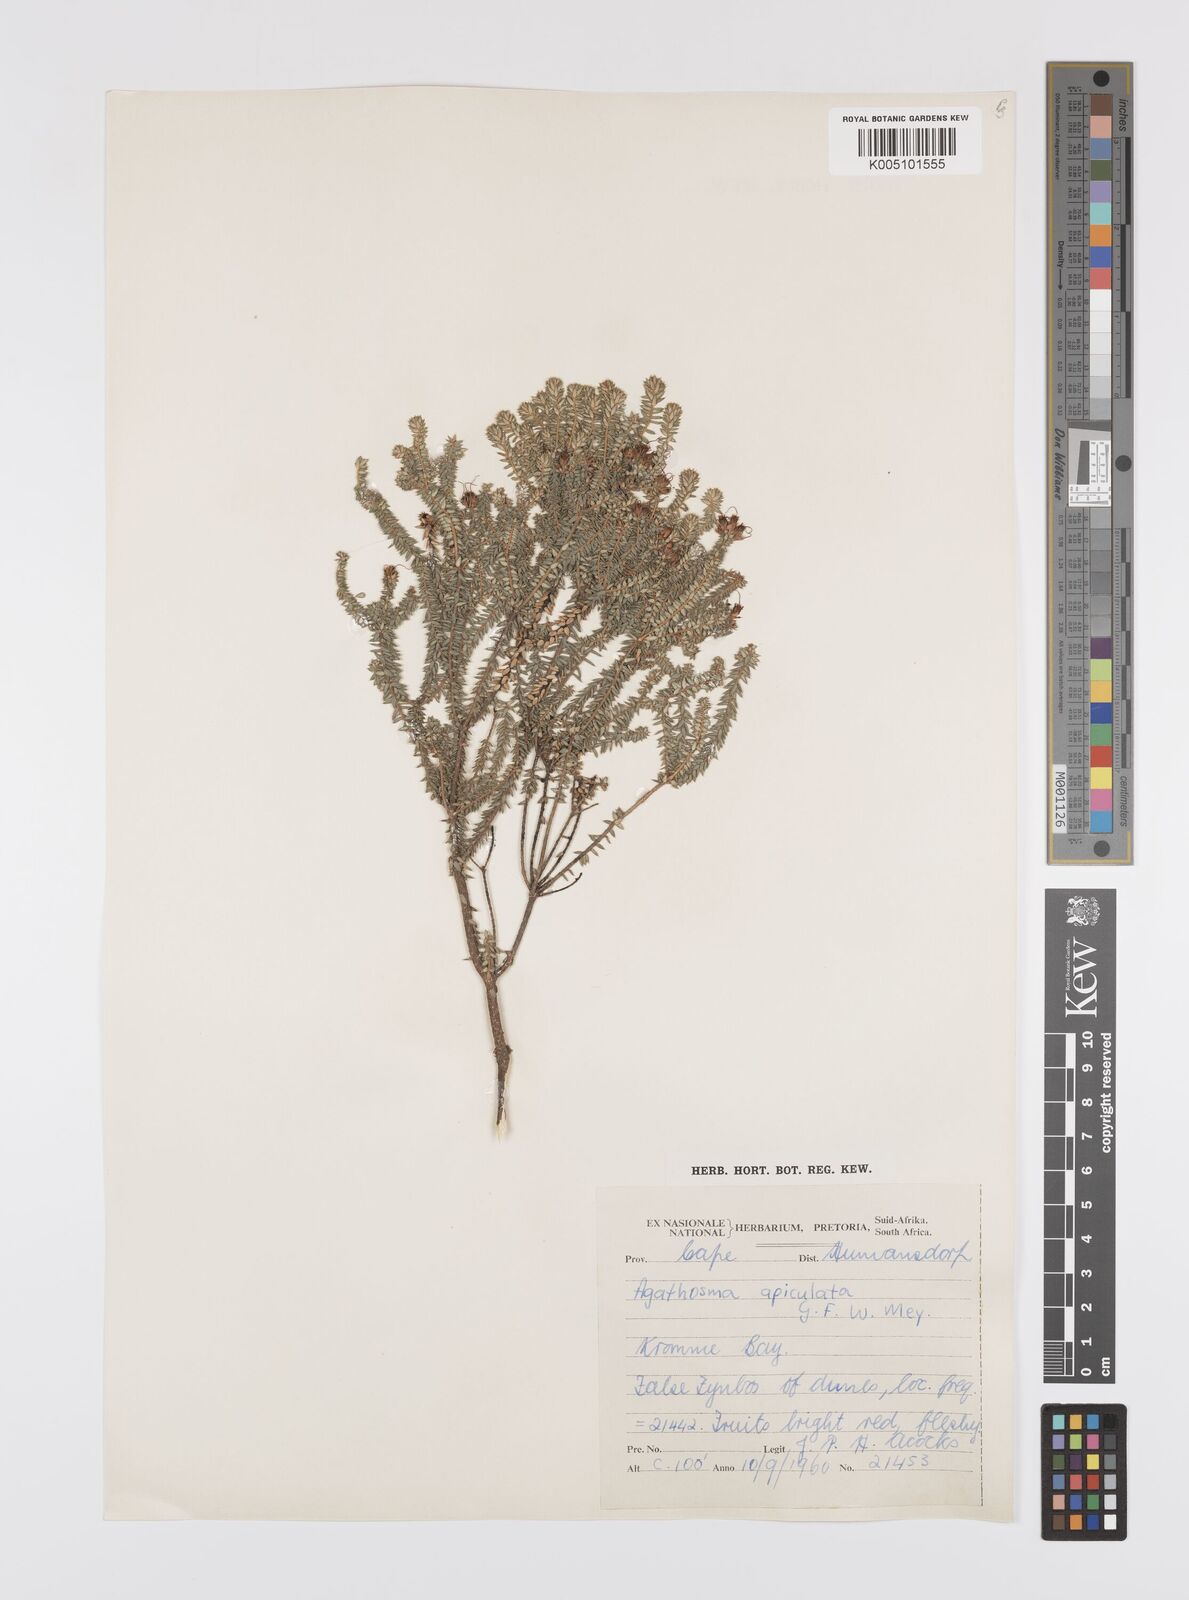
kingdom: Plantae
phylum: Tracheophyta
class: Magnoliopsida
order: Sapindales
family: Rutaceae
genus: Agathosma
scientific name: Agathosma
